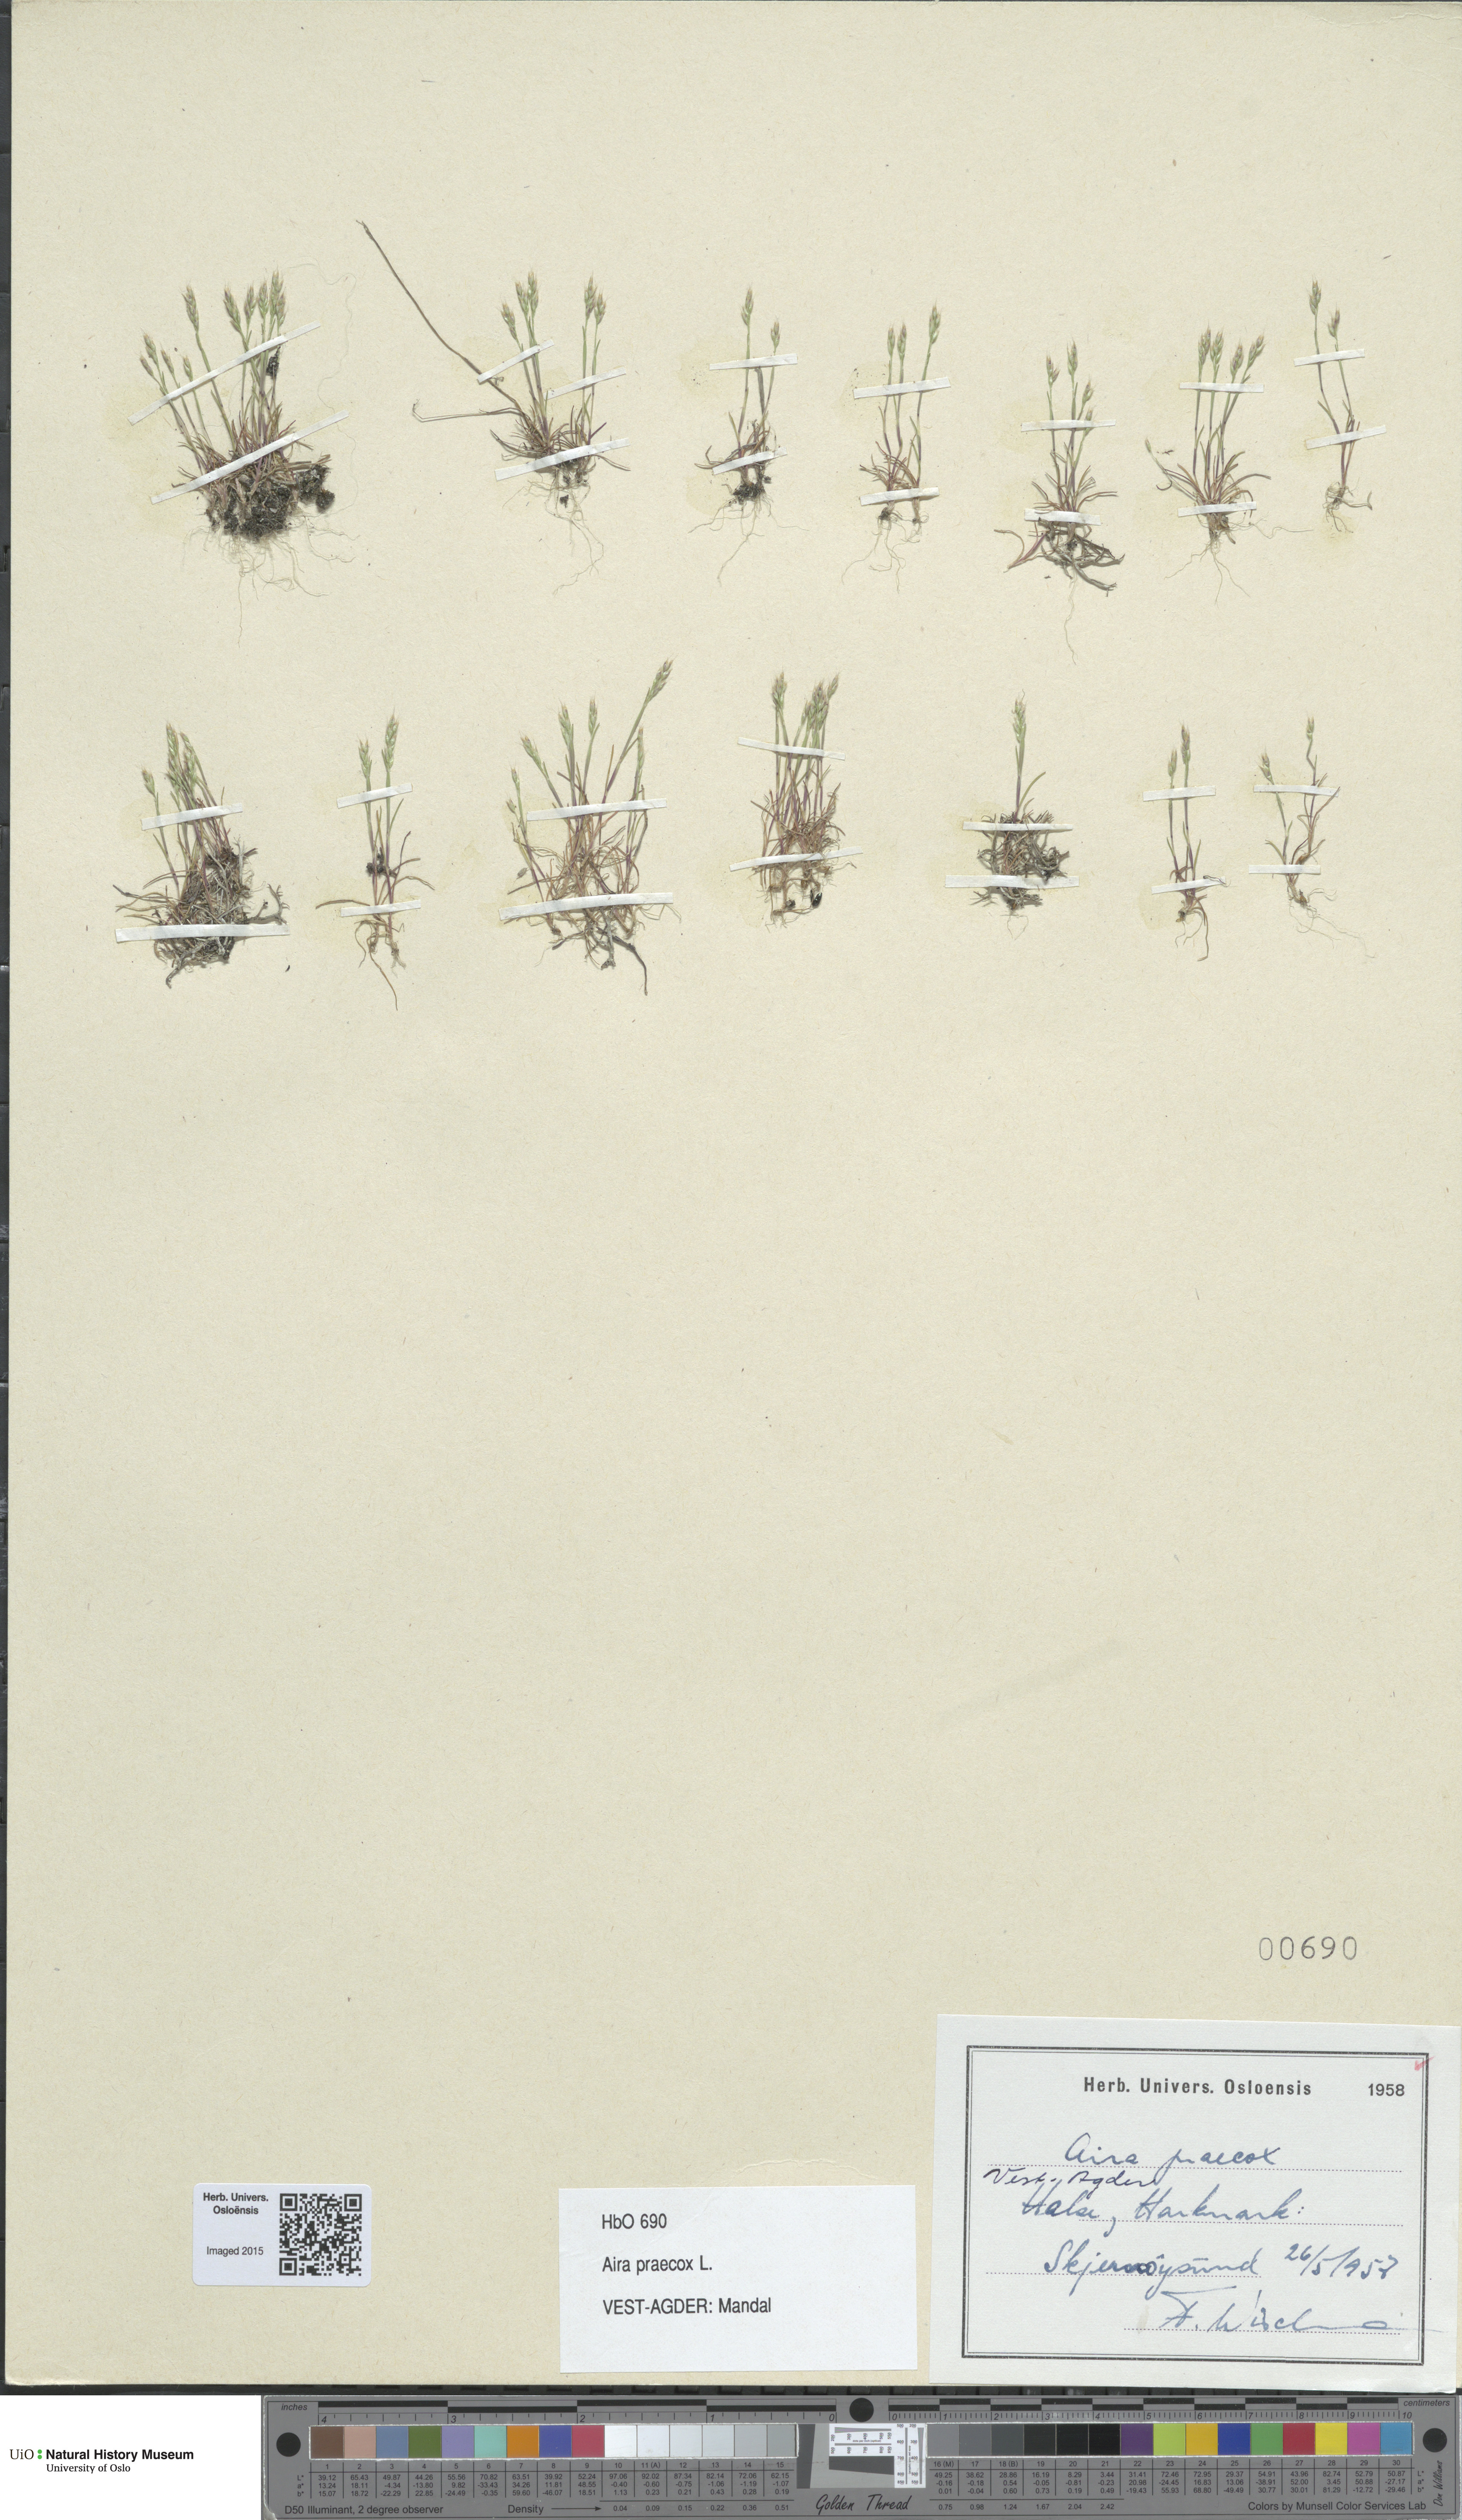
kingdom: Plantae
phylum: Tracheophyta
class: Liliopsida
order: Poales
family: Poaceae
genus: Aira
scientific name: Aira praecox
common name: Early hair-grass
